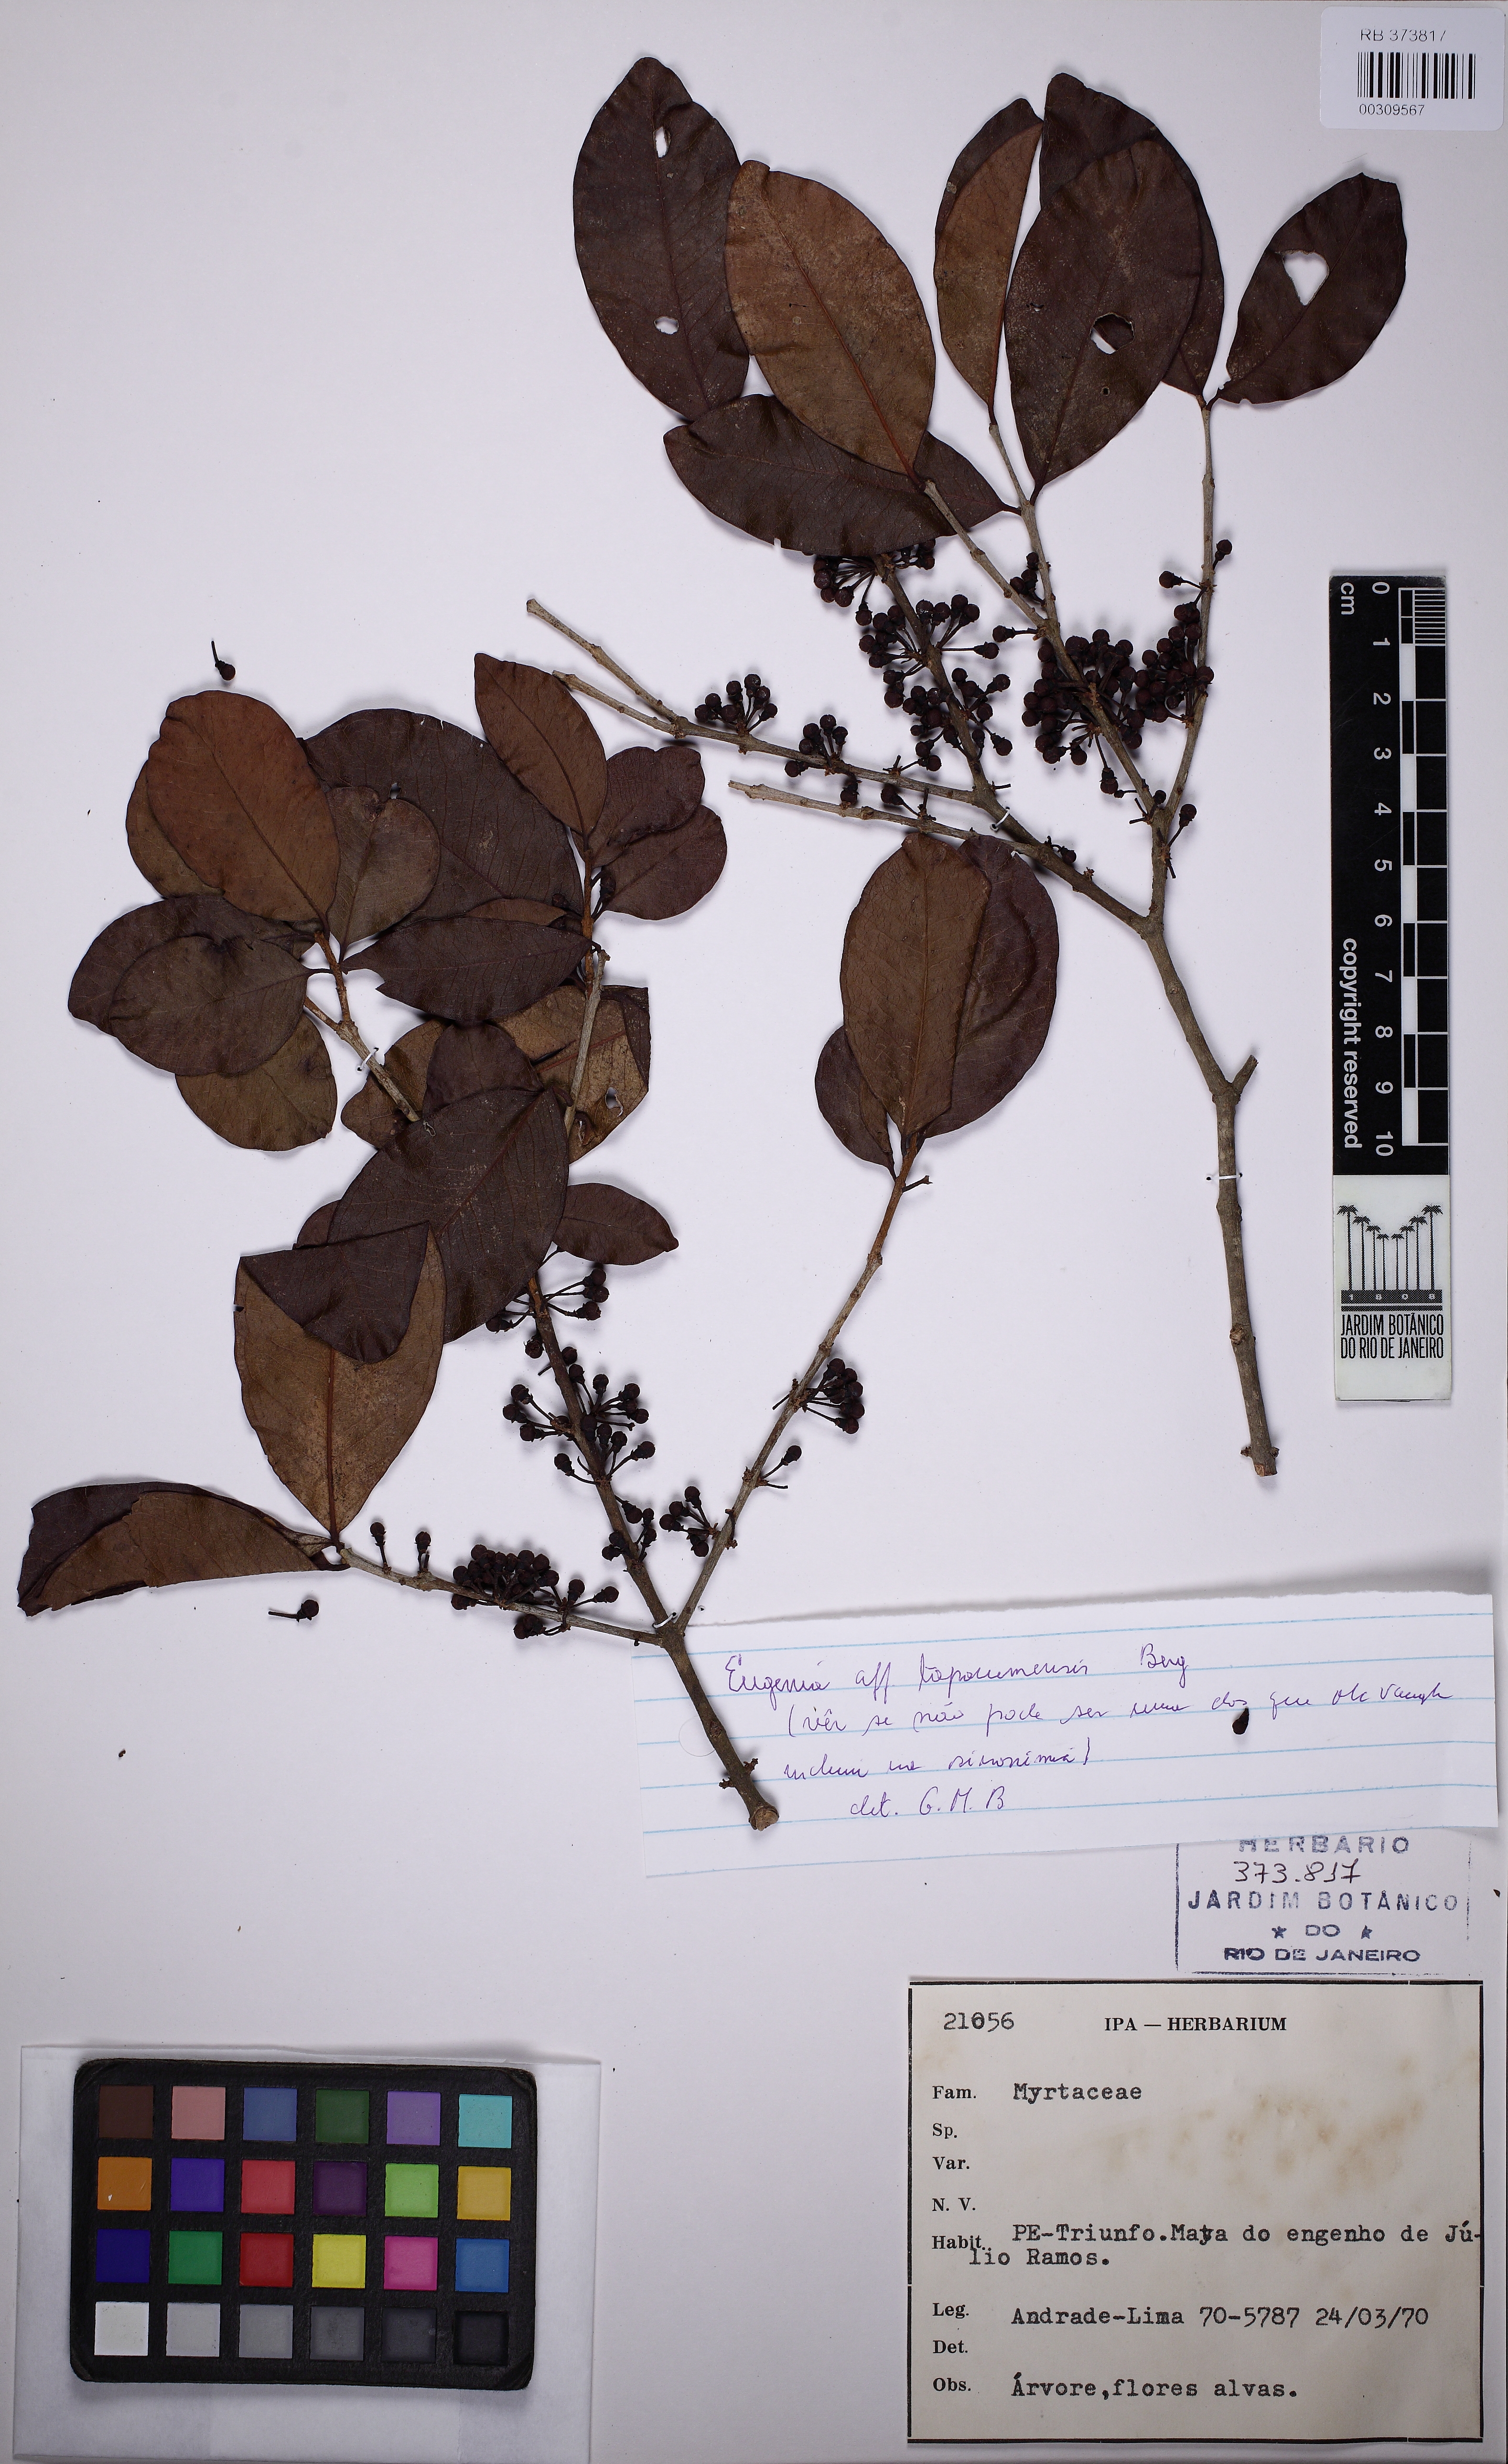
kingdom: Plantae
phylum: Tracheophyta
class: Magnoliopsida
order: Myrtales
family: Myrtaceae
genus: Eugenia
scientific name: Eugenia tapacumensis
